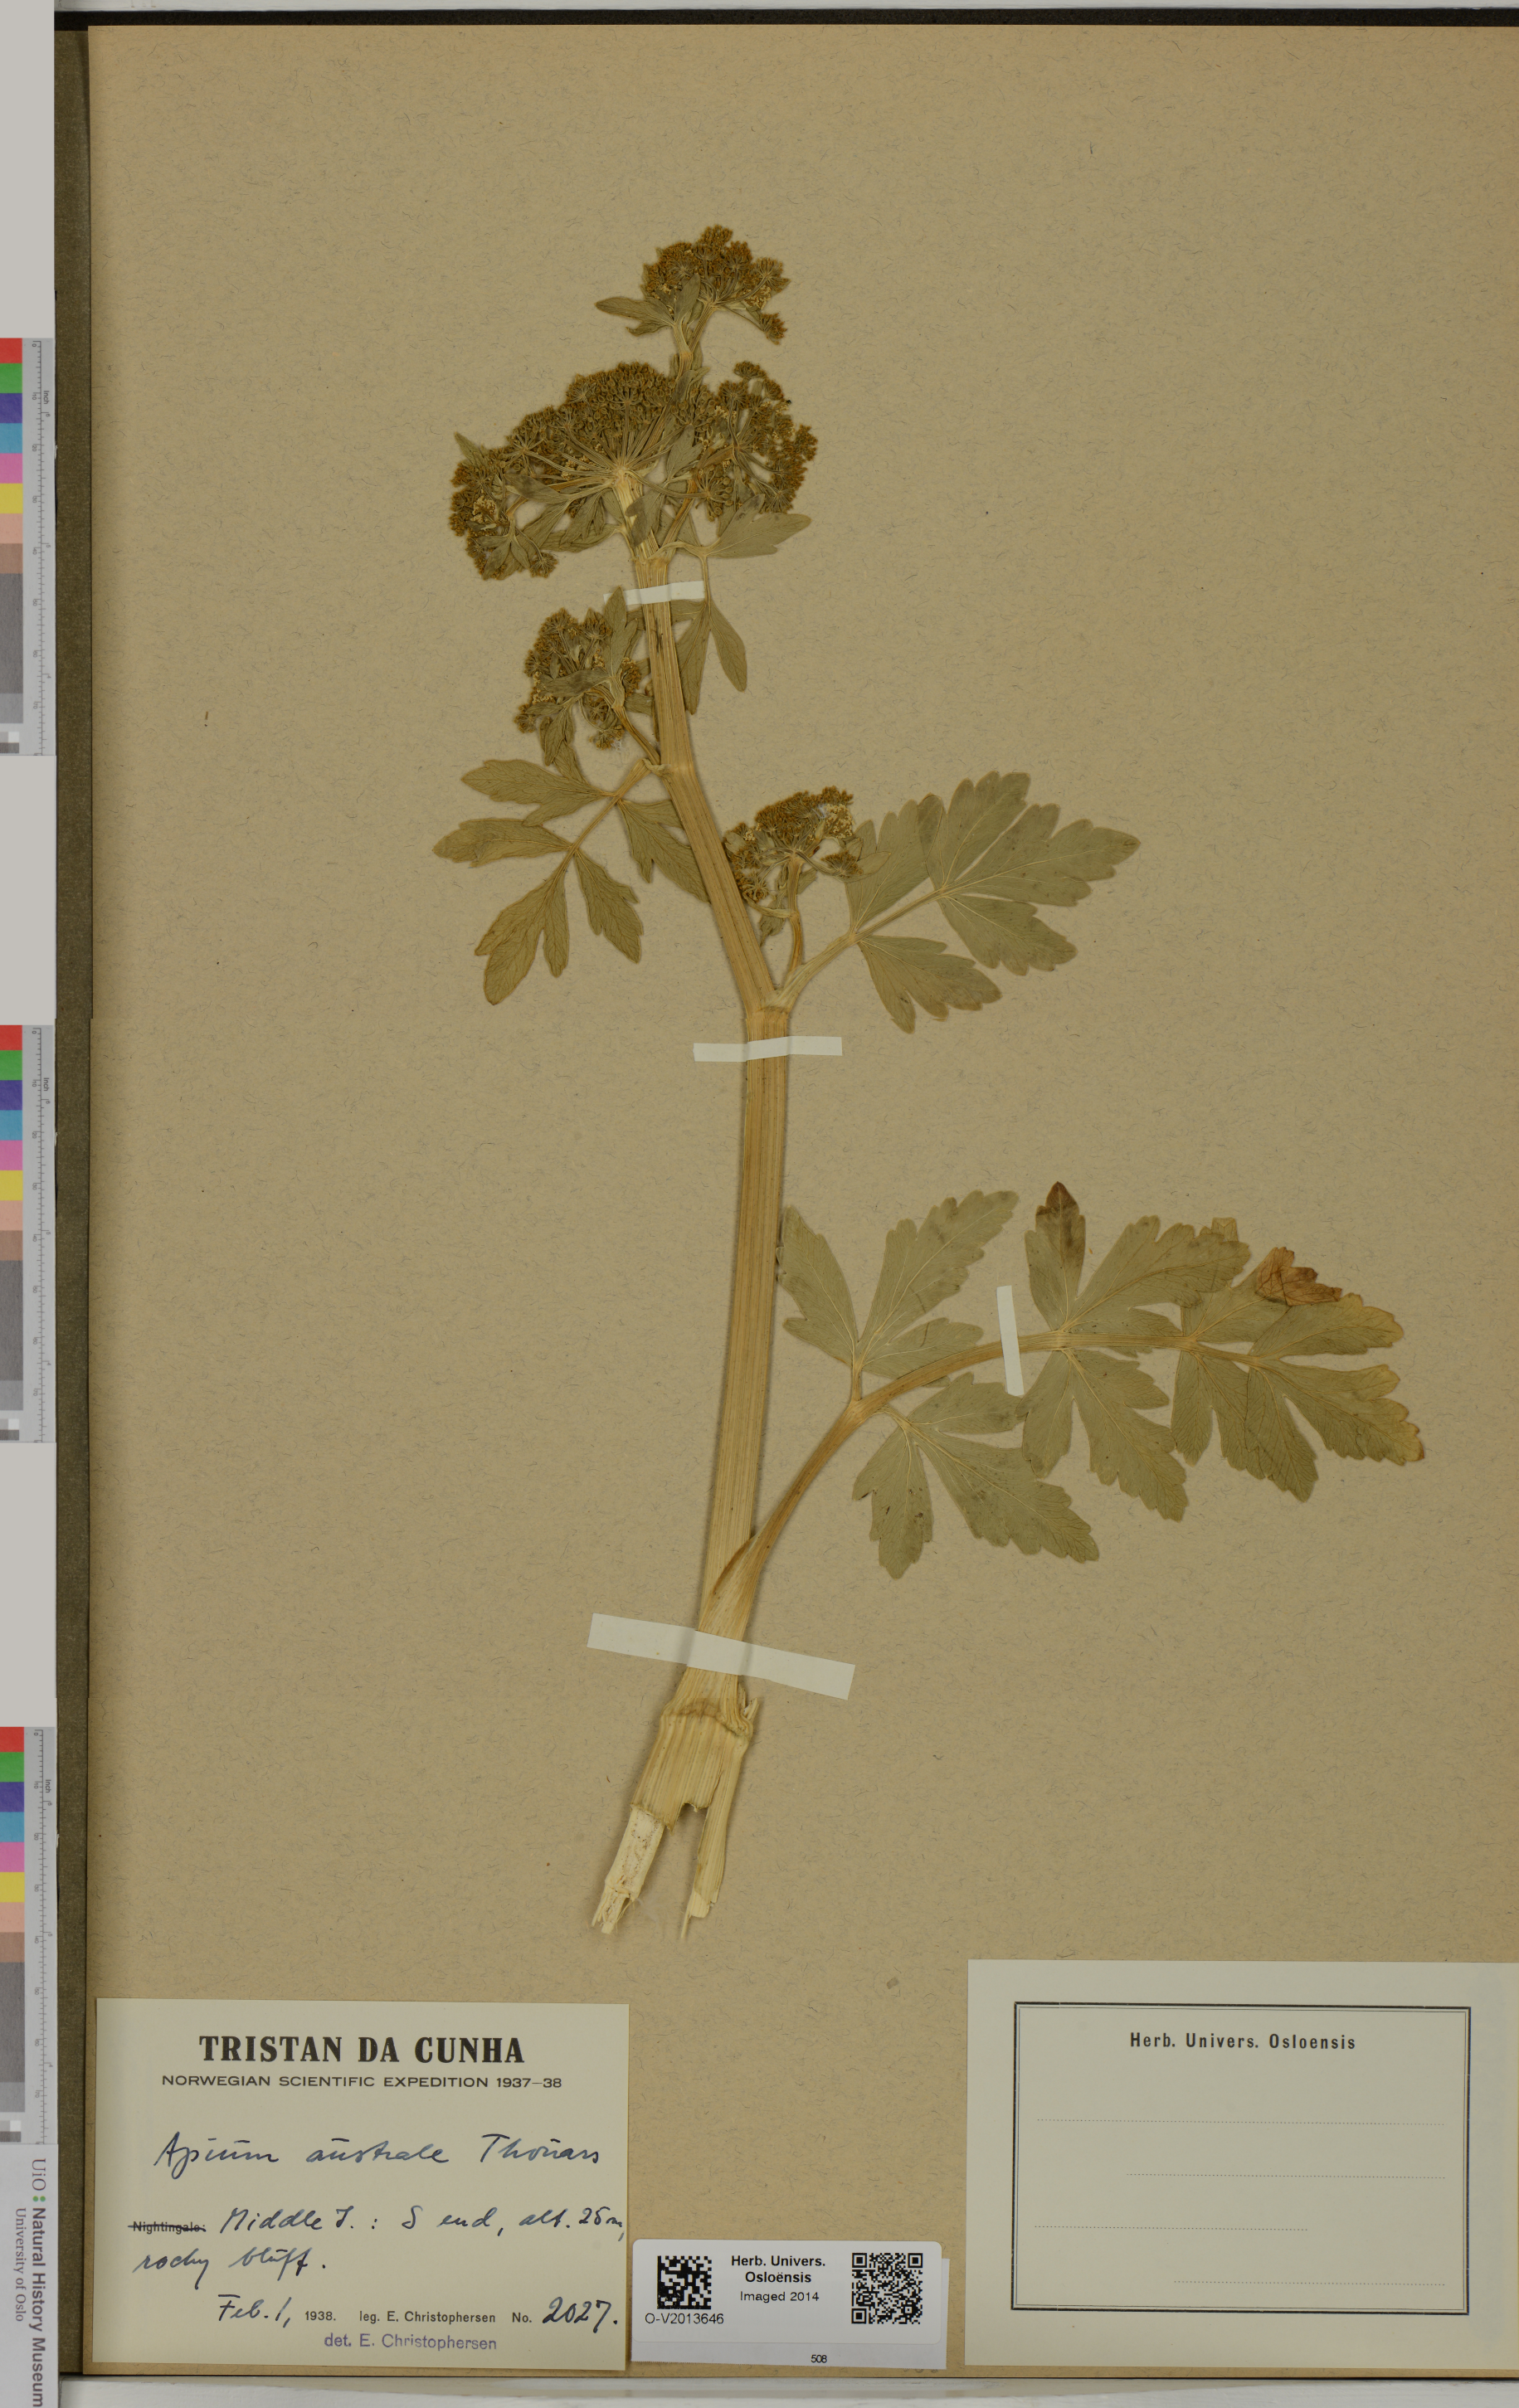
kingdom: Plantae
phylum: Tracheophyta
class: Magnoliopsida
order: Apiales
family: Apiaceae
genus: Apium
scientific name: Apium prostratum
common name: Prostrate marshwort
